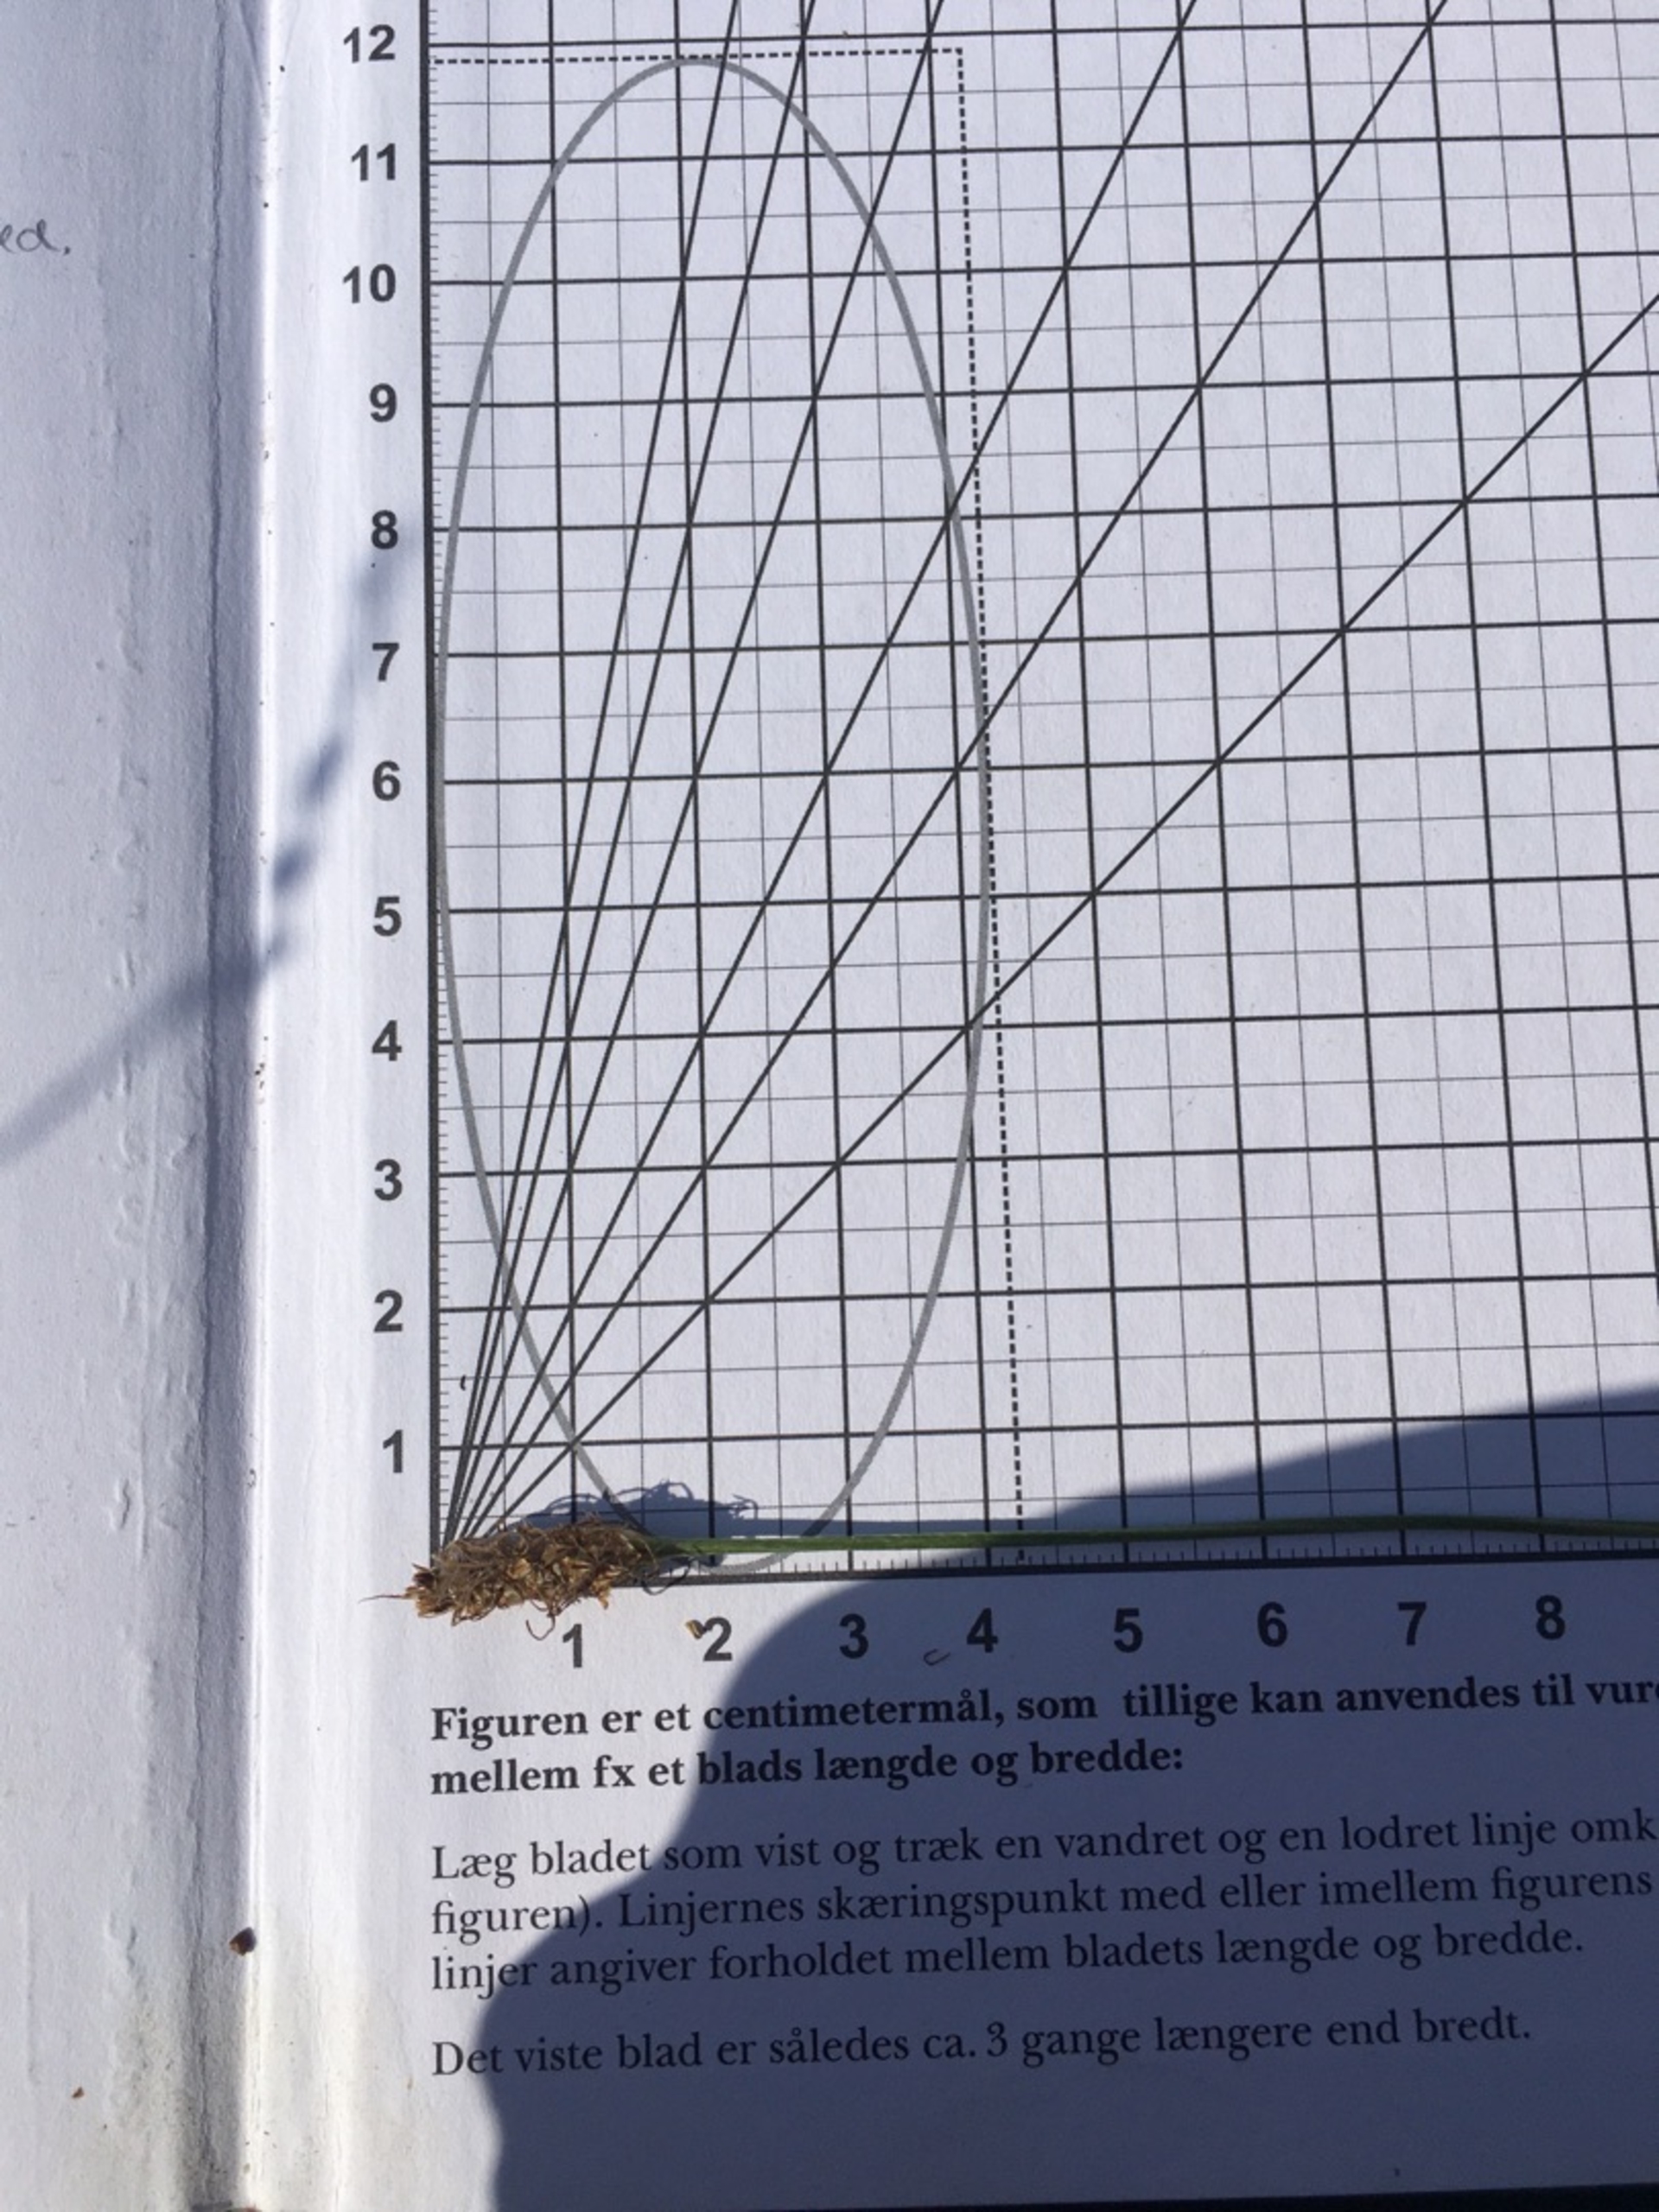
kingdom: Plantae
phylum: Tracheophyta
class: Magnoliopsida
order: Lamiales
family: Plantaginaceae
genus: Plantago
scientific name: Plantago lanceolata
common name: Lancet-vejbred
